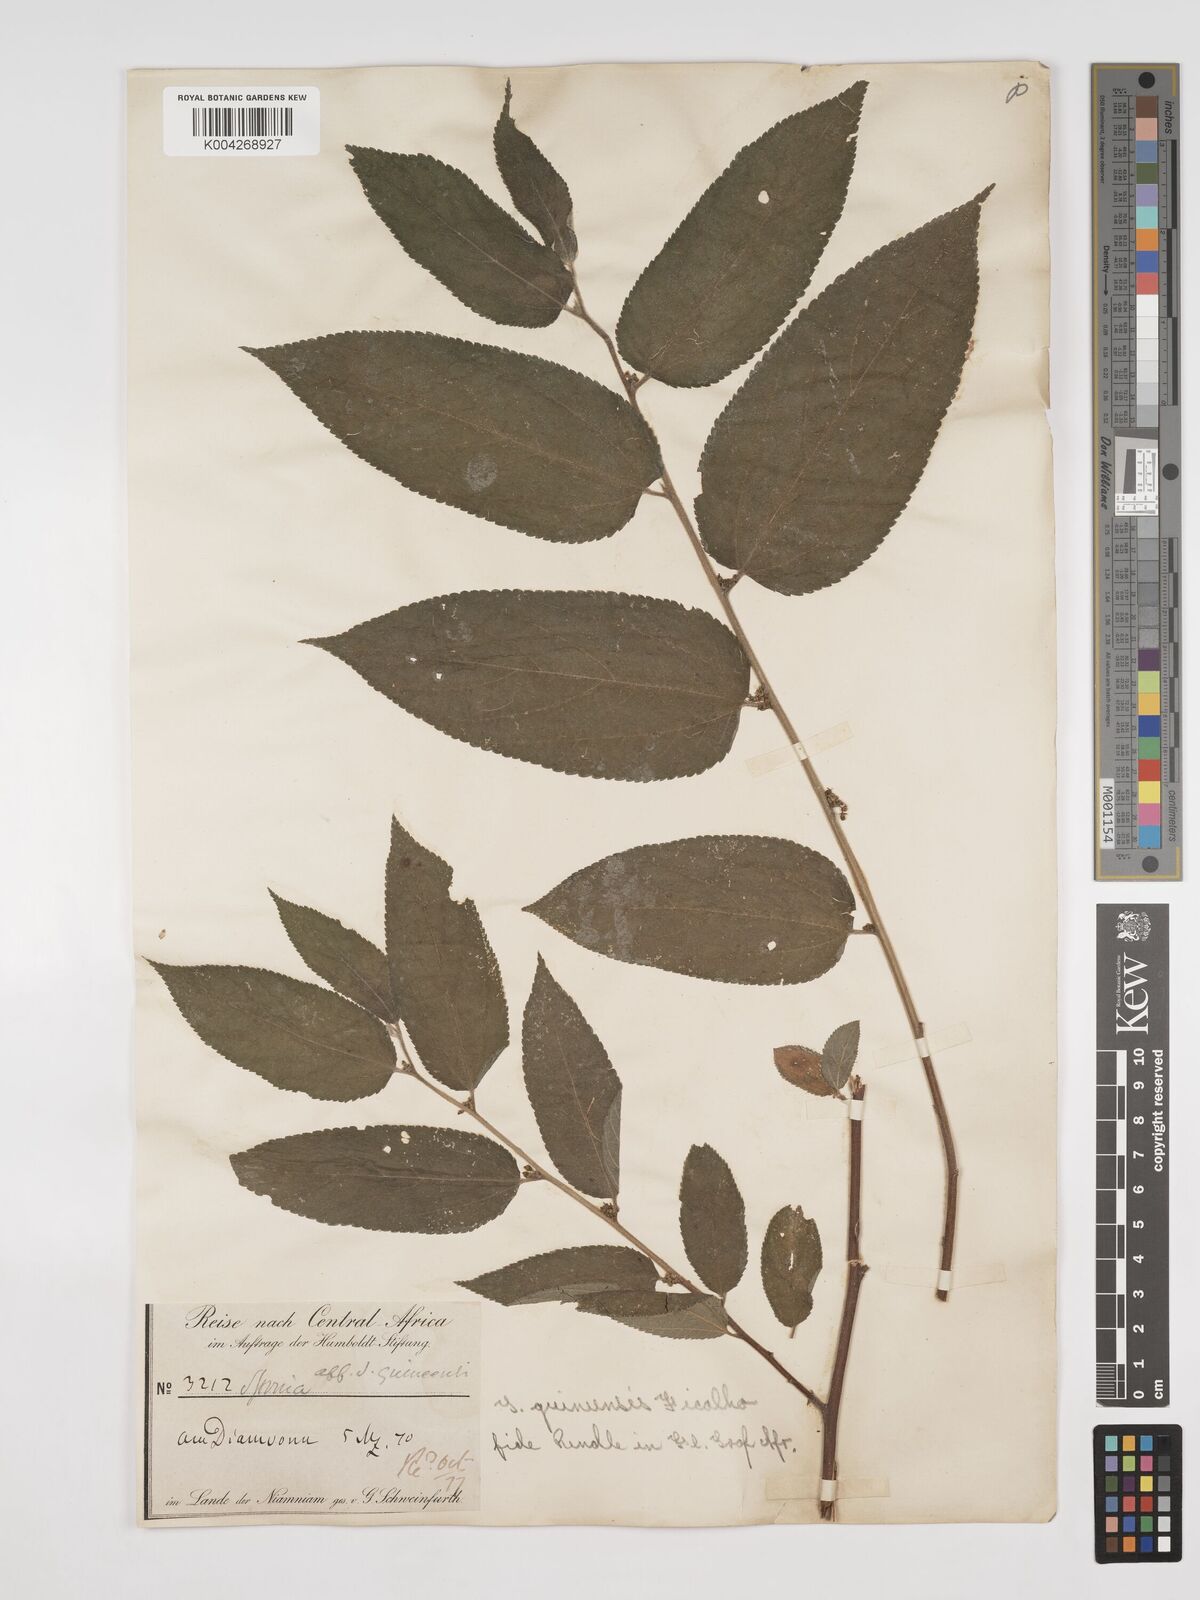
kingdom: Plantae
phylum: Tracheophyta
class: Magnoliopsida
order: Rosales
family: Cannabaceae
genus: Trema
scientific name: Trema orientale
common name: Indian charcoal tree
